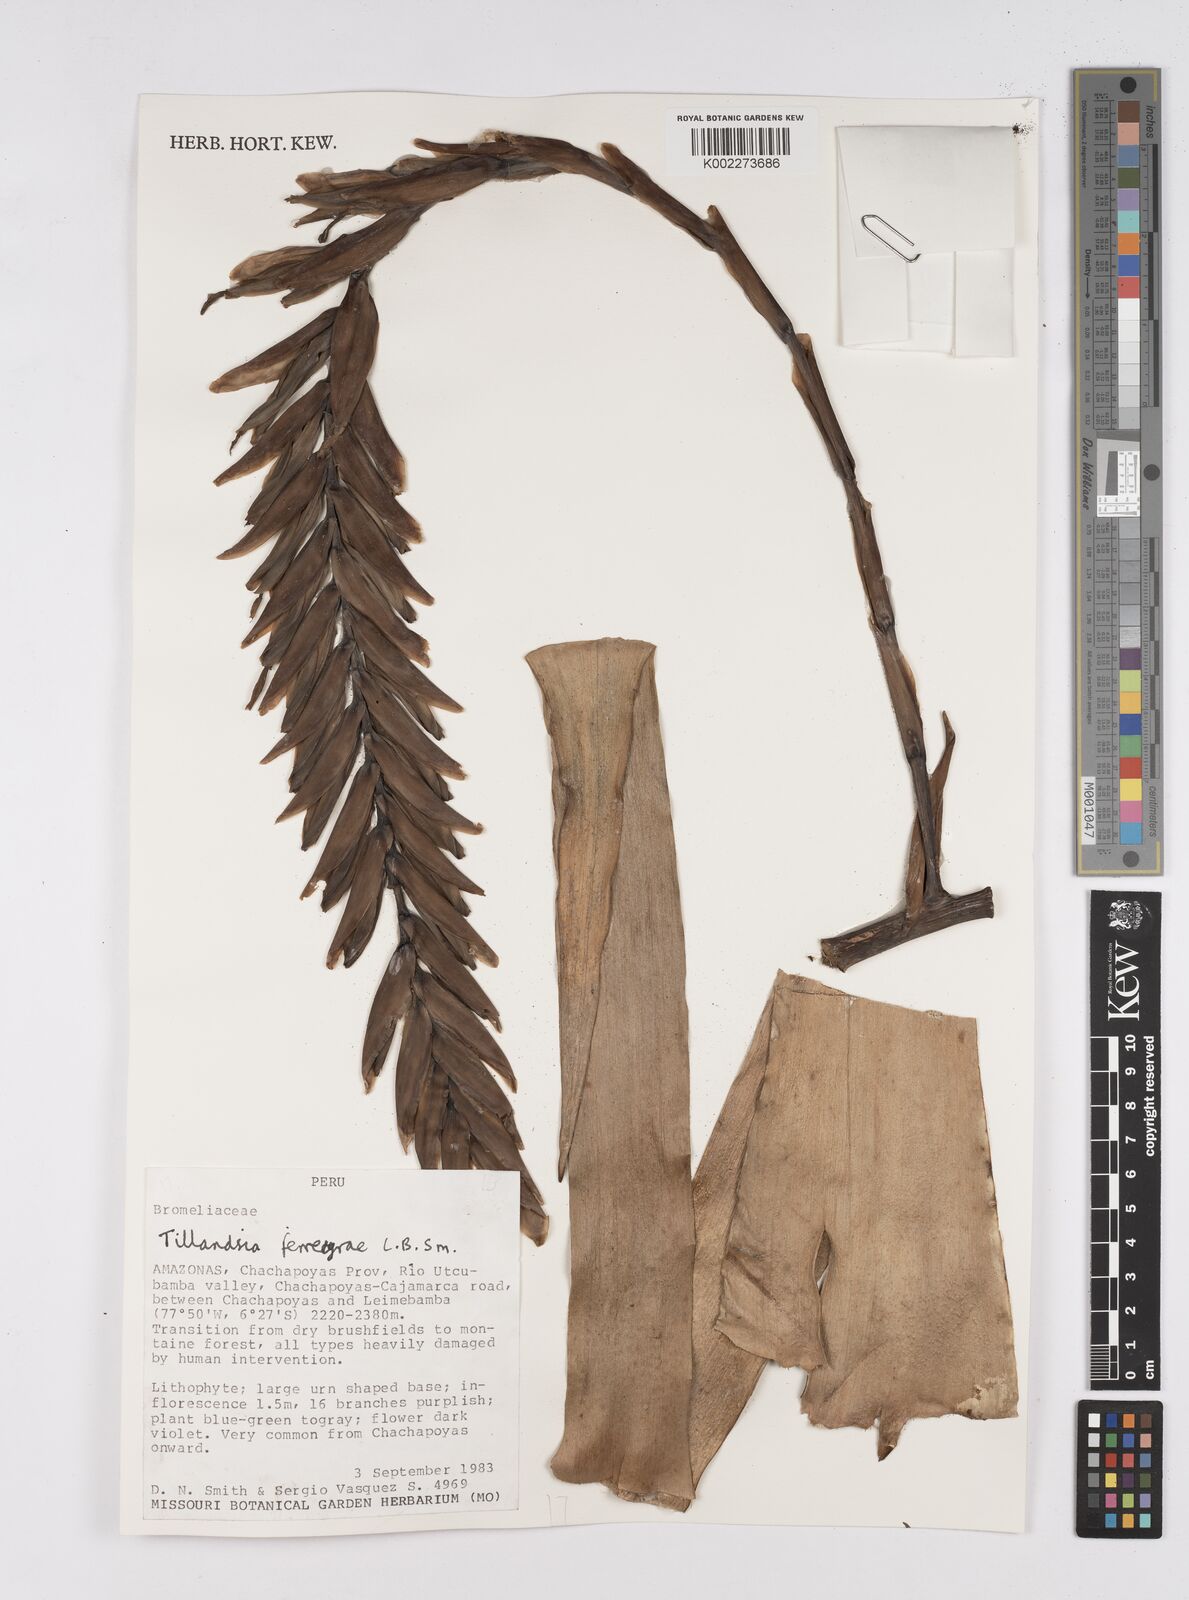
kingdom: Plantae
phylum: Tracheophyta
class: Liliopsida
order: Poales
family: Bromeliaceae
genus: Tillandsia
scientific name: Tillandsia ferreyrae
